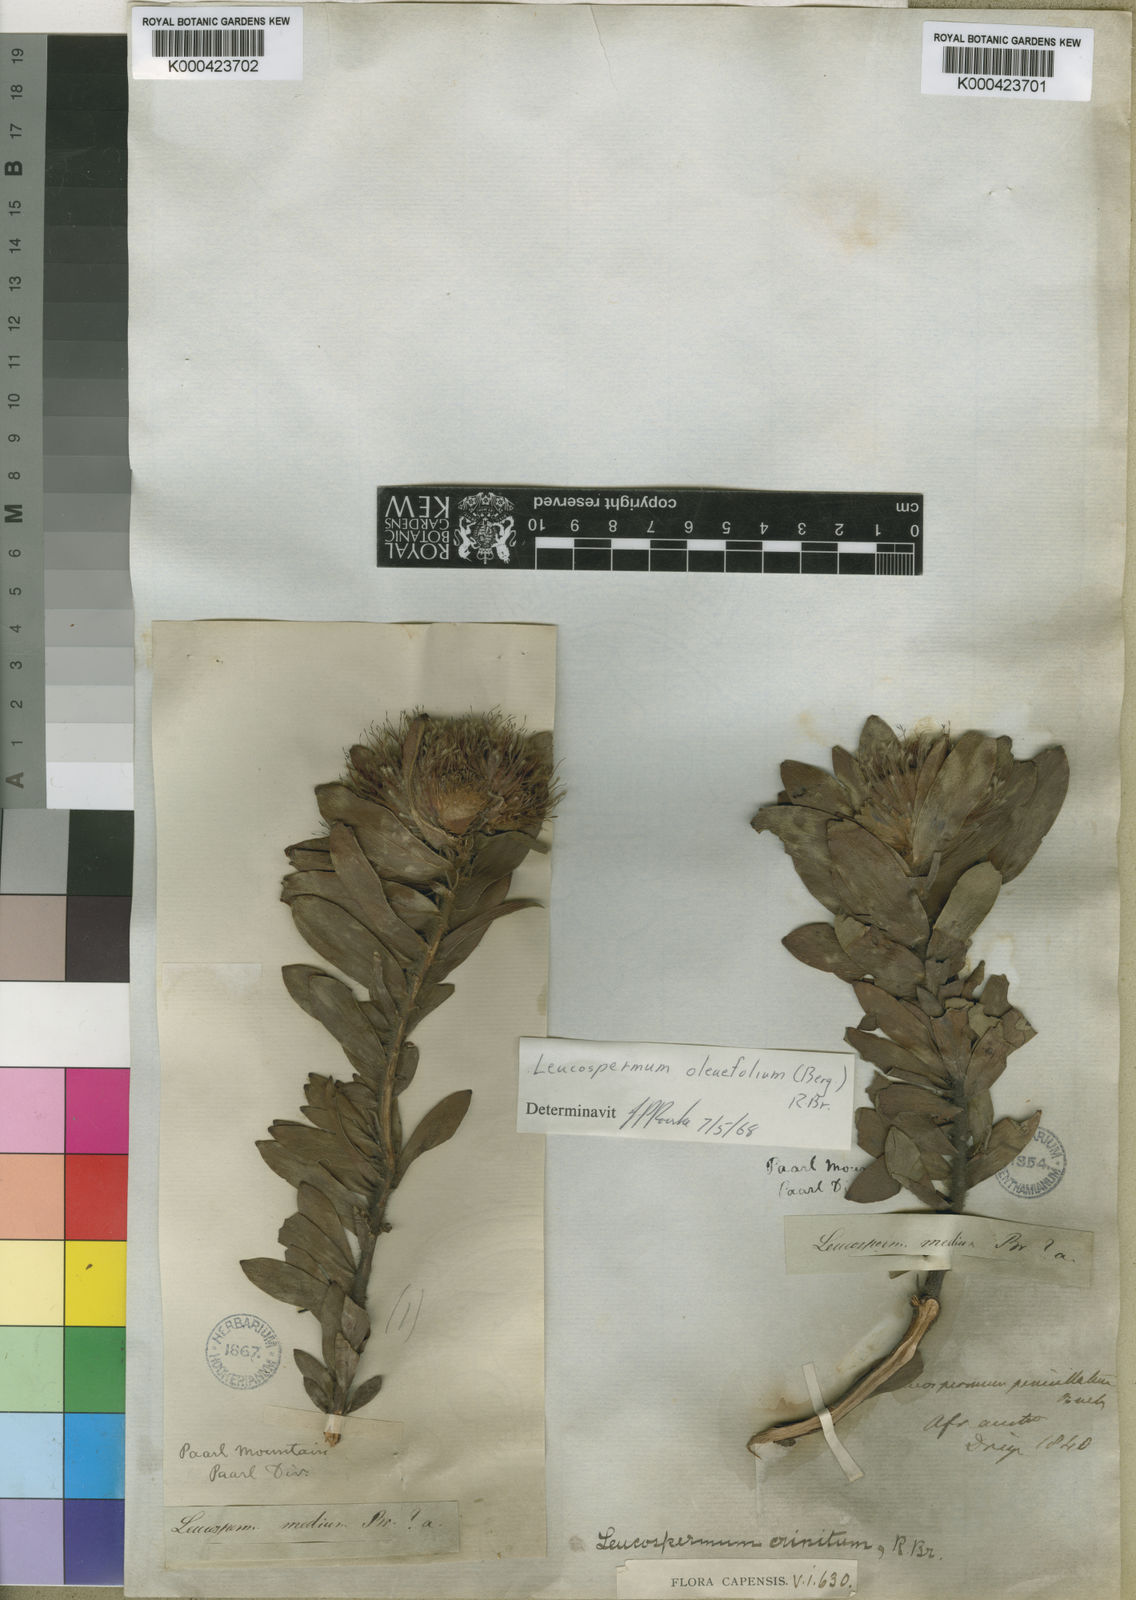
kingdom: Plantae
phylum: Tracheophyta
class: Magnoliopsida
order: Proteales
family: Proteaceae
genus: Leucospermum
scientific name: Leucospermum oleifolium
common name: Matches
